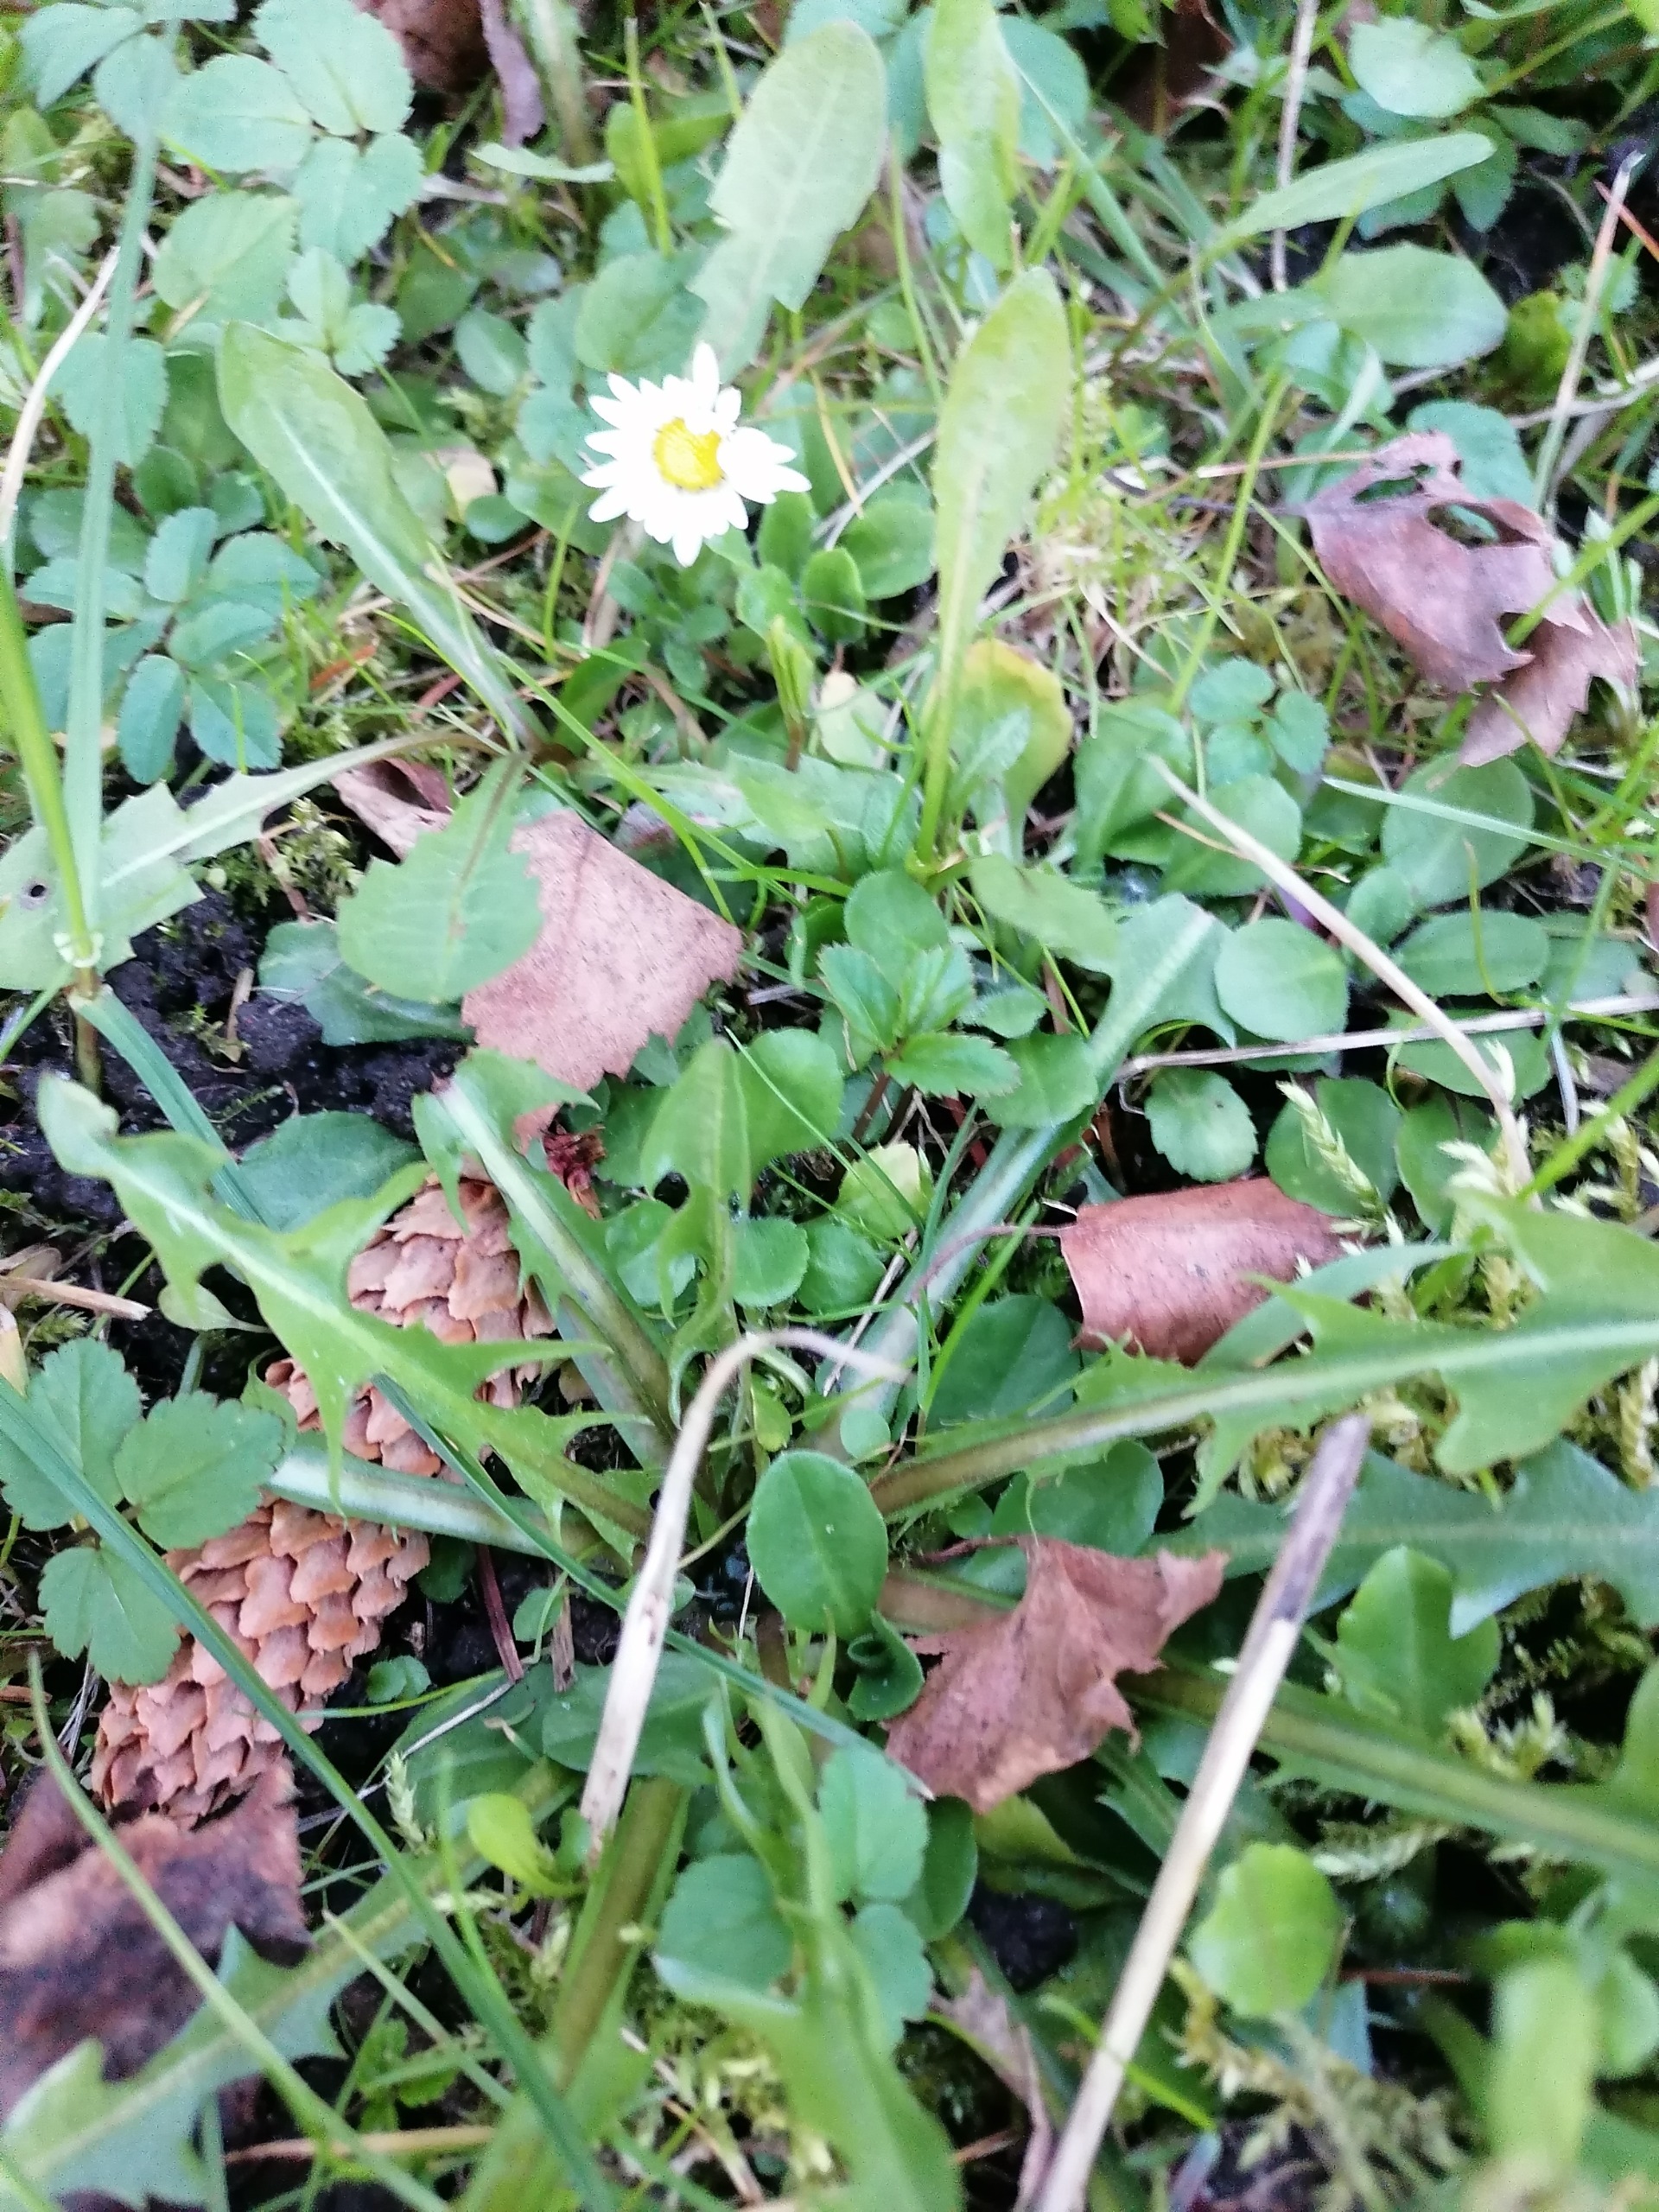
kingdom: Plantae
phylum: Tracheophyta
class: Magnoliopsida
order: Asterales
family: Asteraceae
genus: Bellis
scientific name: Bellis perennis
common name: Tusindfryd
